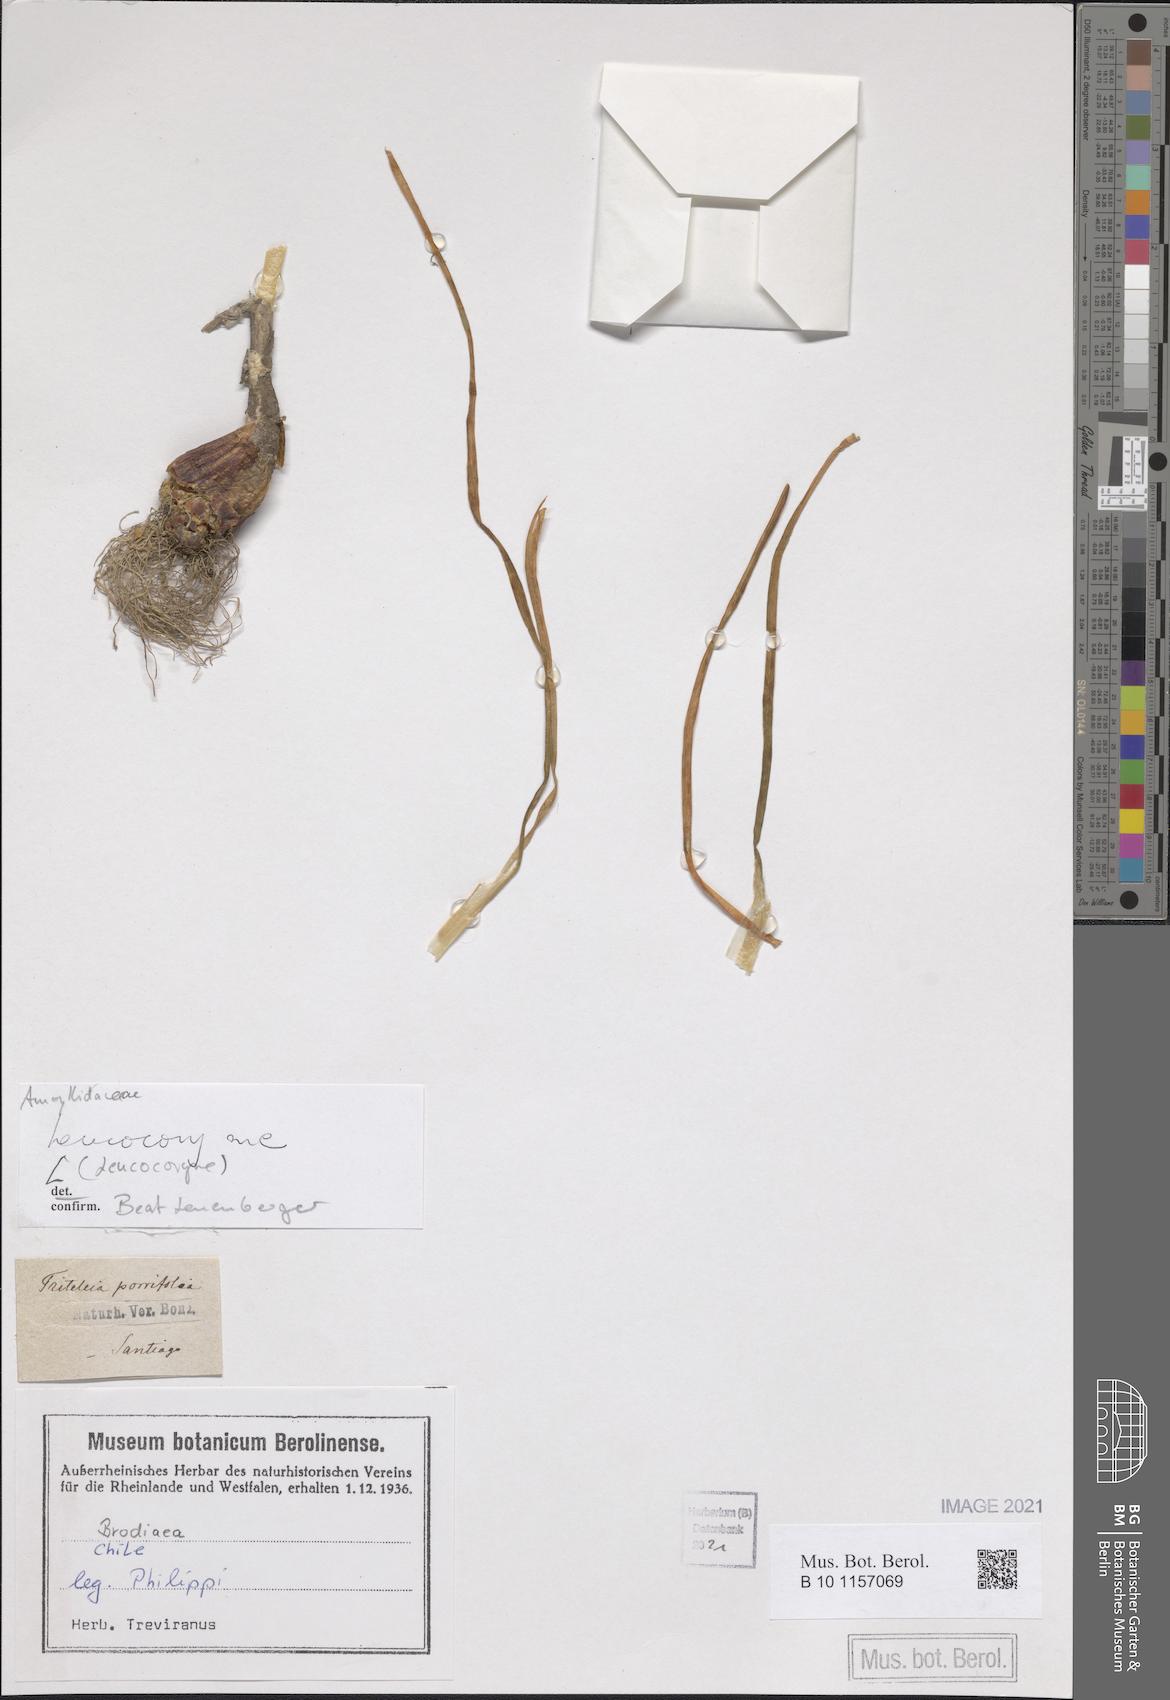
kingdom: Plantae
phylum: Tracheophyta
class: Liliopsida
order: Asparagales
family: Amaryllidaceae
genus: Leucocoryne
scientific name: Leucocoryne
